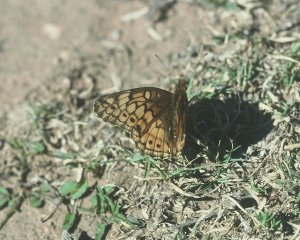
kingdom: Animalia
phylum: Arthropoda
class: Insecta
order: Lepidoptera
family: Nymphalidae
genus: Euptoieta
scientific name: Euptoieta claudia
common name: Variegated Fritillary
